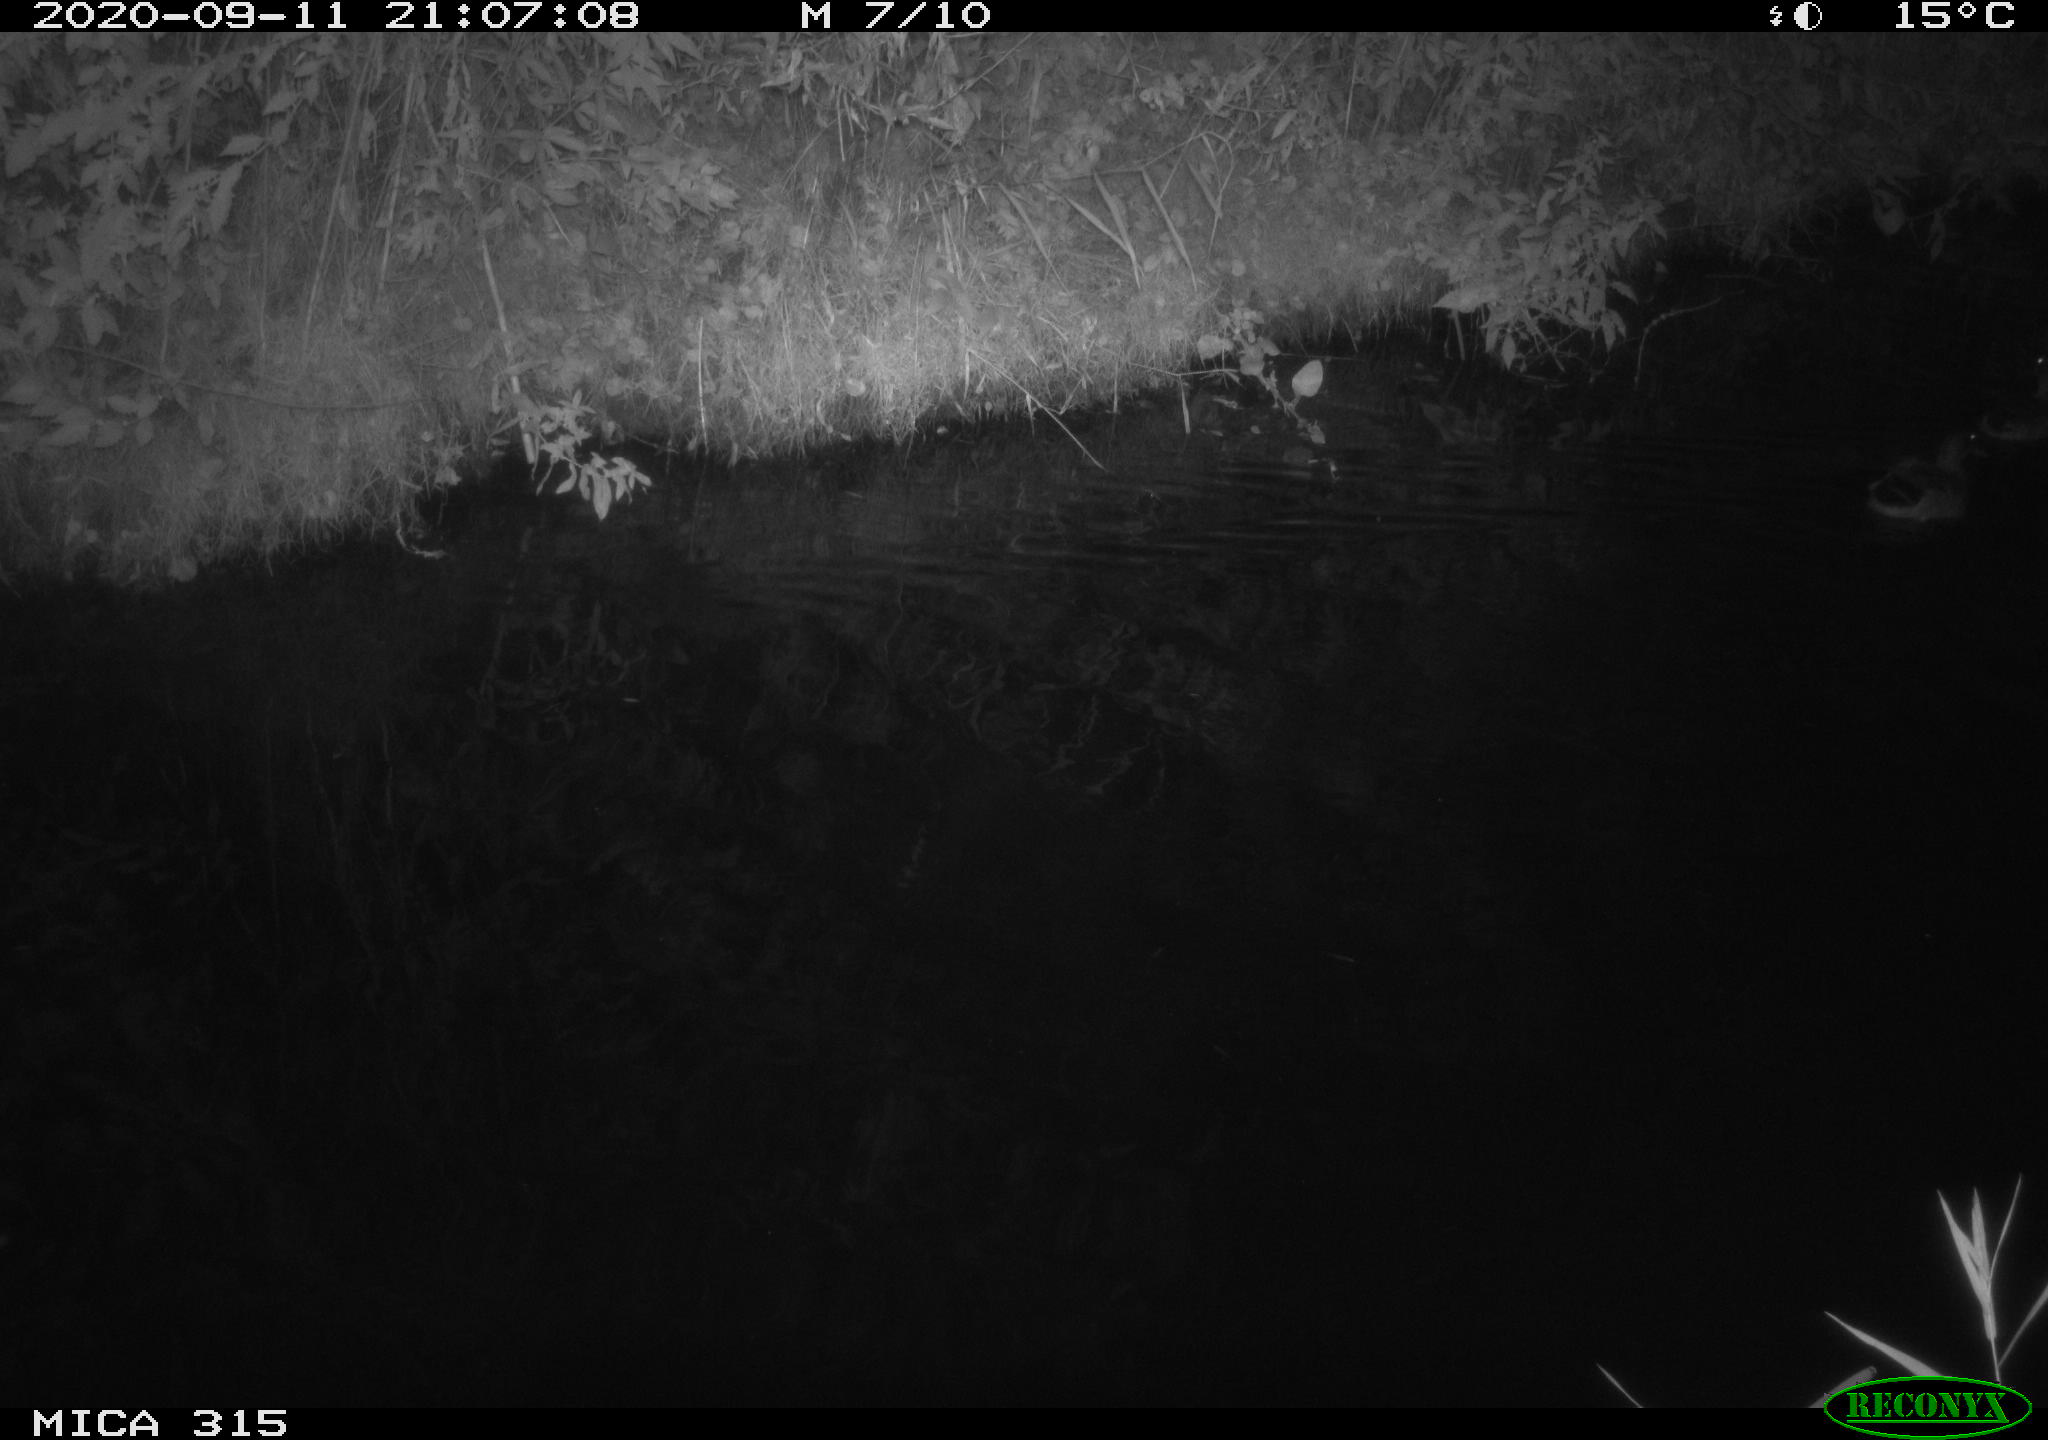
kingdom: Animalia
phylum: Chordata
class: Aves
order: Anseriformes
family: Anatidae
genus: Anas
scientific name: Anas platyrhynchos
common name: Mallard
